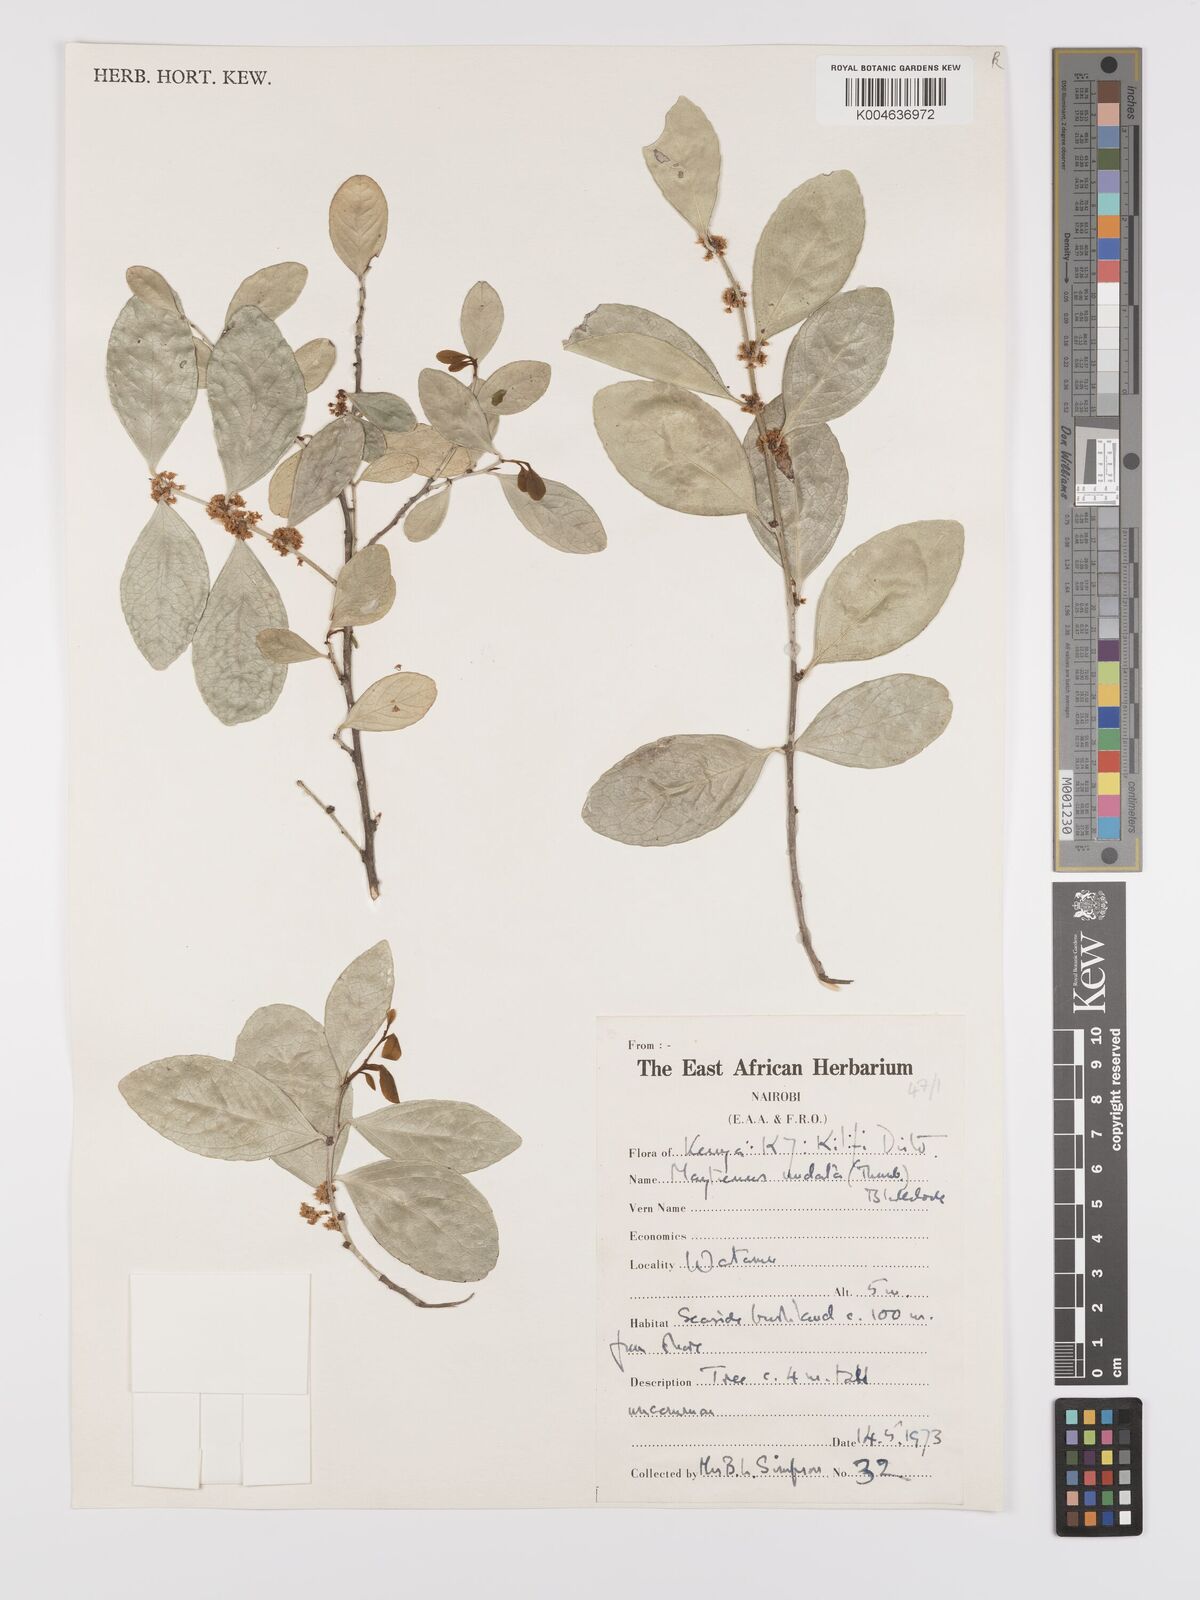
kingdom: Plantae
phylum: Tracheophyta
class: Magnoliopsida
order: Celastrales
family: Celastraceae
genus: Gymnosporia
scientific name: Gymnosporia undata
